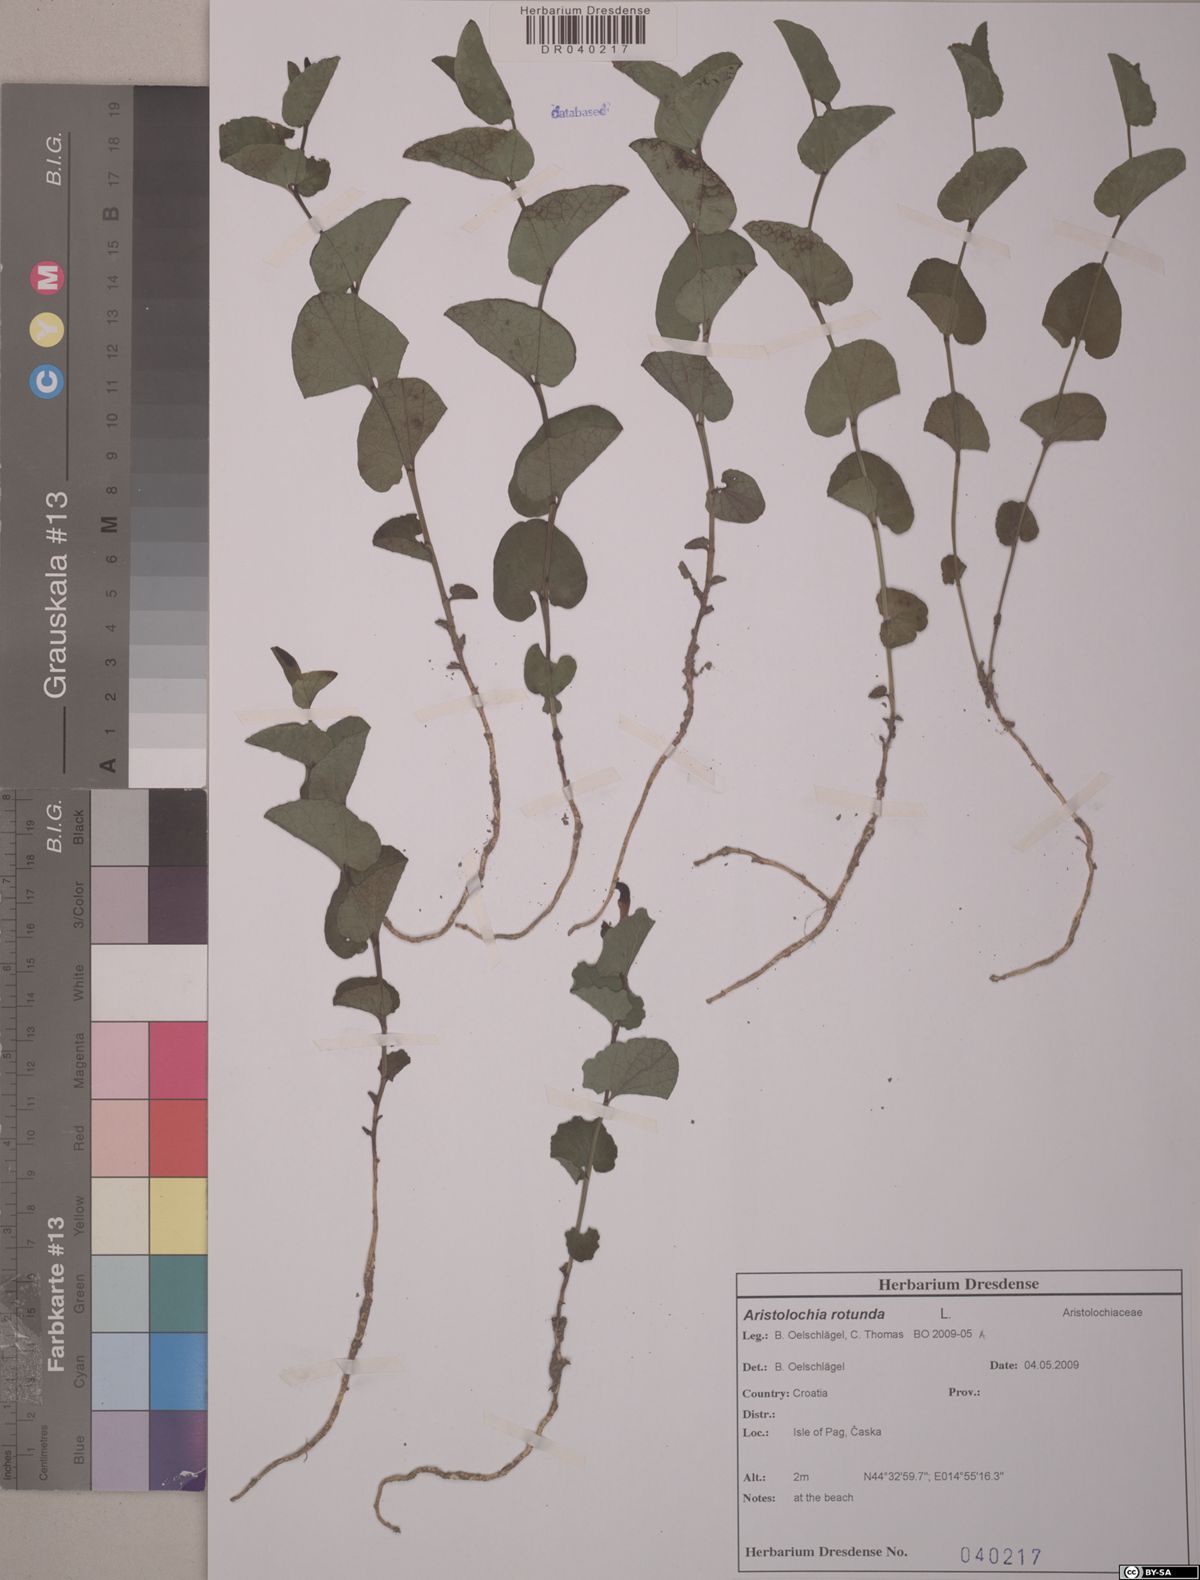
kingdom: Plantae
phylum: Tracheophyta
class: Magnoliopsida
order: Piperales
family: Aristolochiaceae
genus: Aristolochia
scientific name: Aristolochia rotunda
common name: Smearwort
